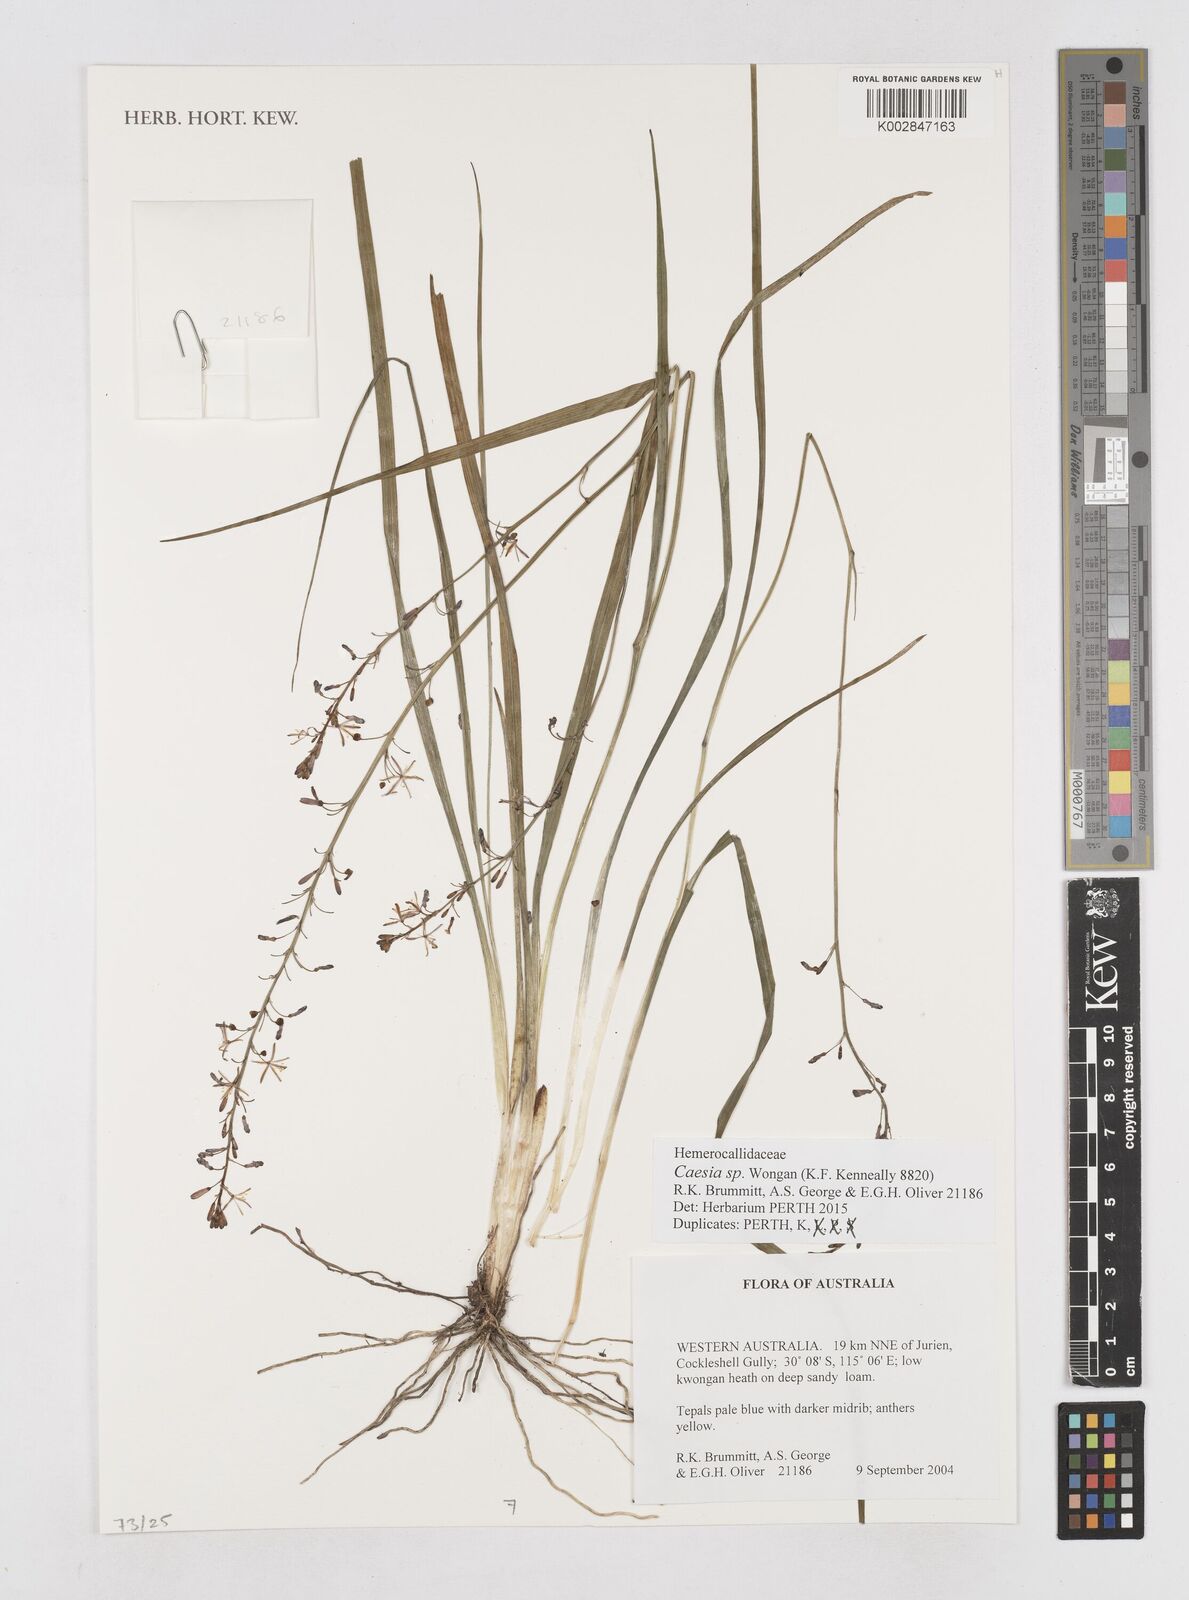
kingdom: Plantae
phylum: Tracheophyta
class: Liliopsida
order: Asparagales
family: Asphodelaceae
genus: Caesia
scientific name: Caesia
